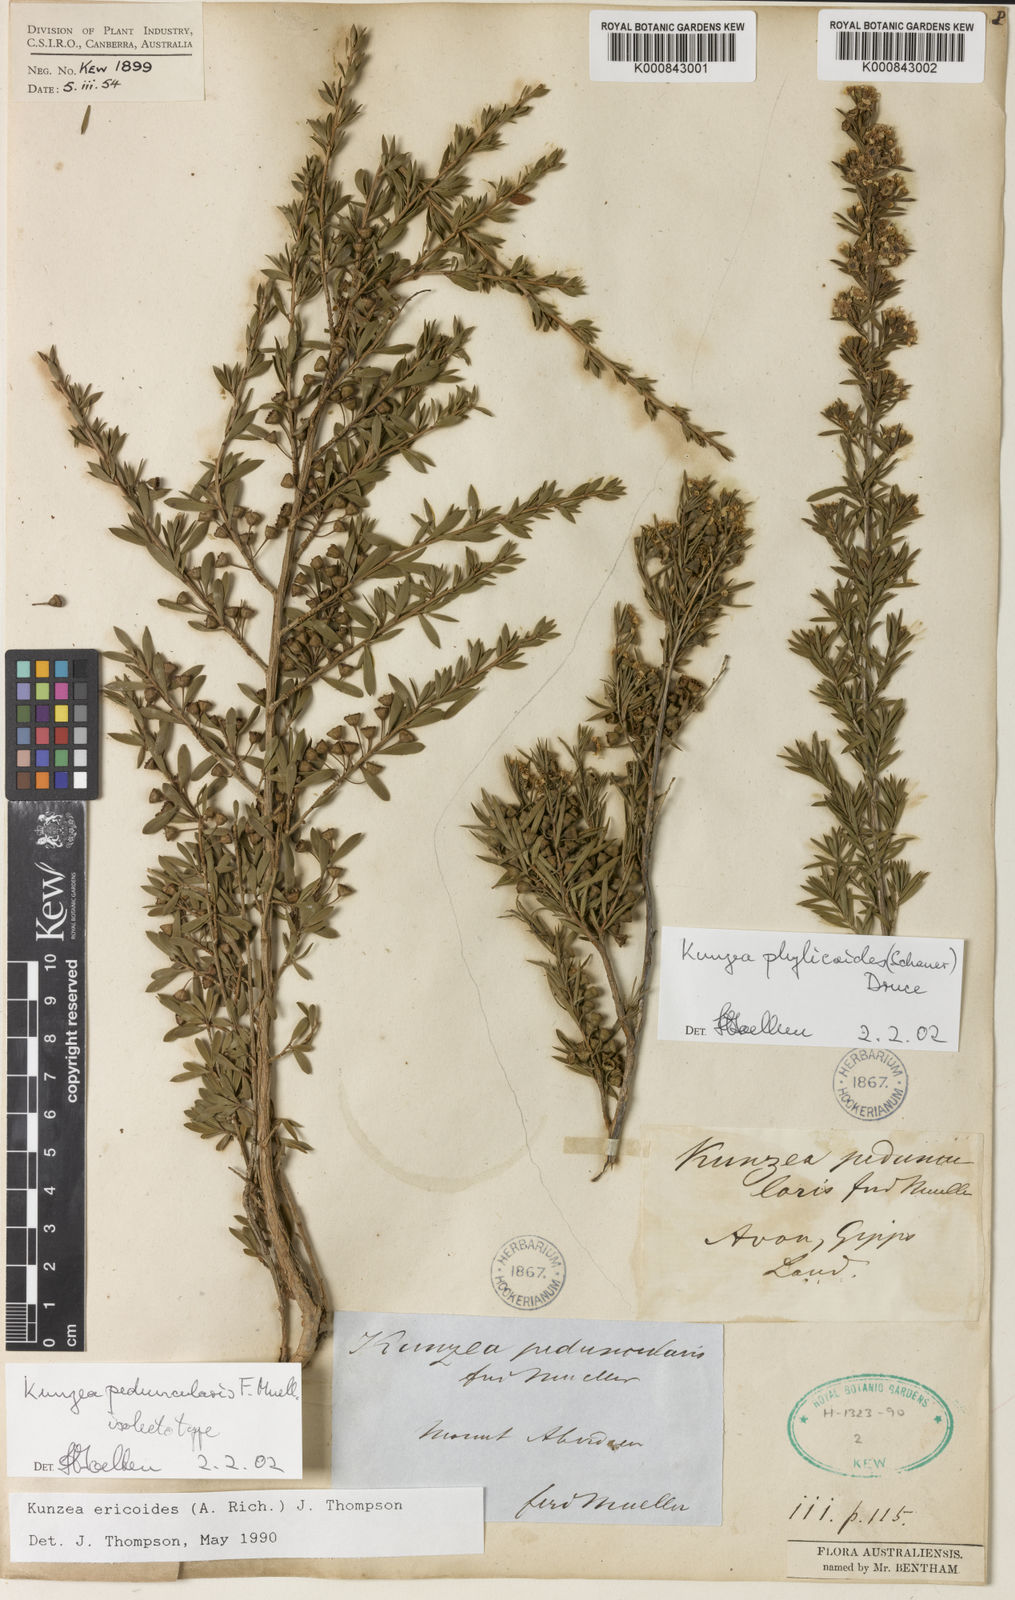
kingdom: Plantae
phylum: Tracheophyta
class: Magnoliopsida
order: Myrtales
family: Myrtaceae
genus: Kunzea
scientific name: Kunzea ericoides
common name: Burgan
